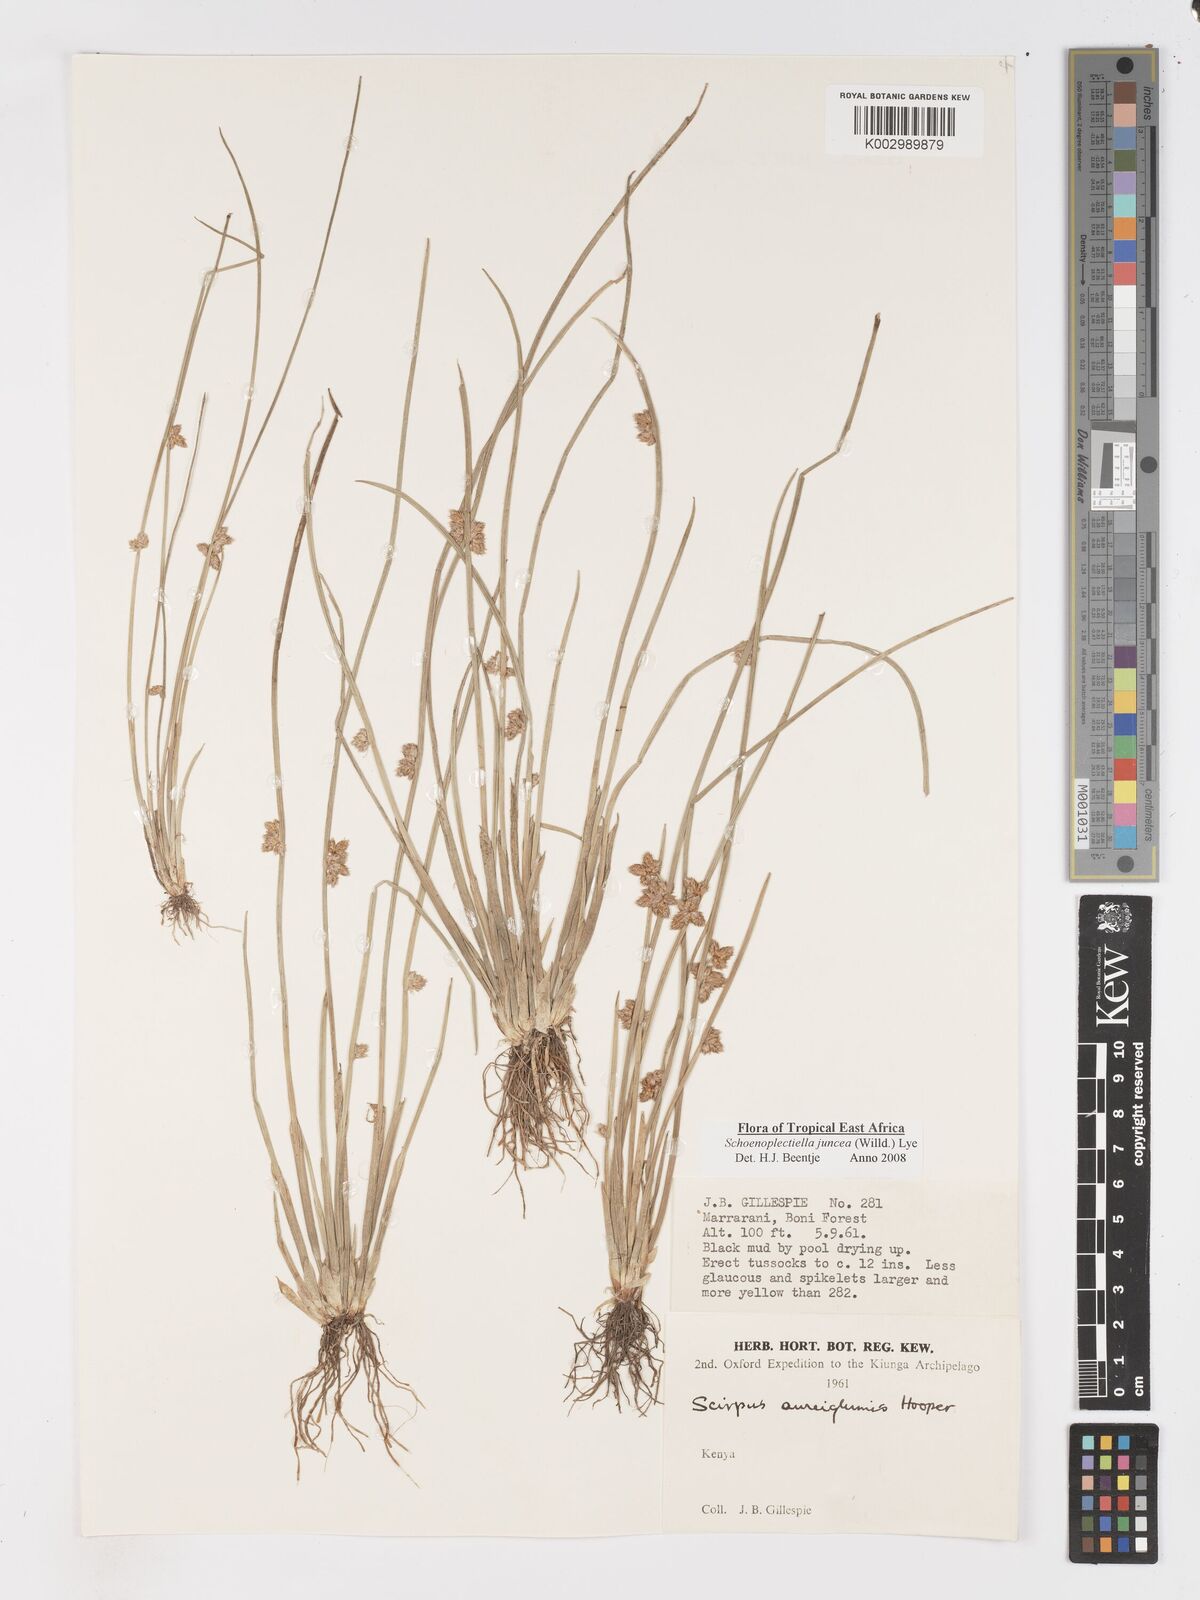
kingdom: Plantae
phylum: Tracheophyta
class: Liliopsida
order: Poales
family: Cyperaceae
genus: Schoenoplectiella
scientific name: Schoenoplectiella juncea
